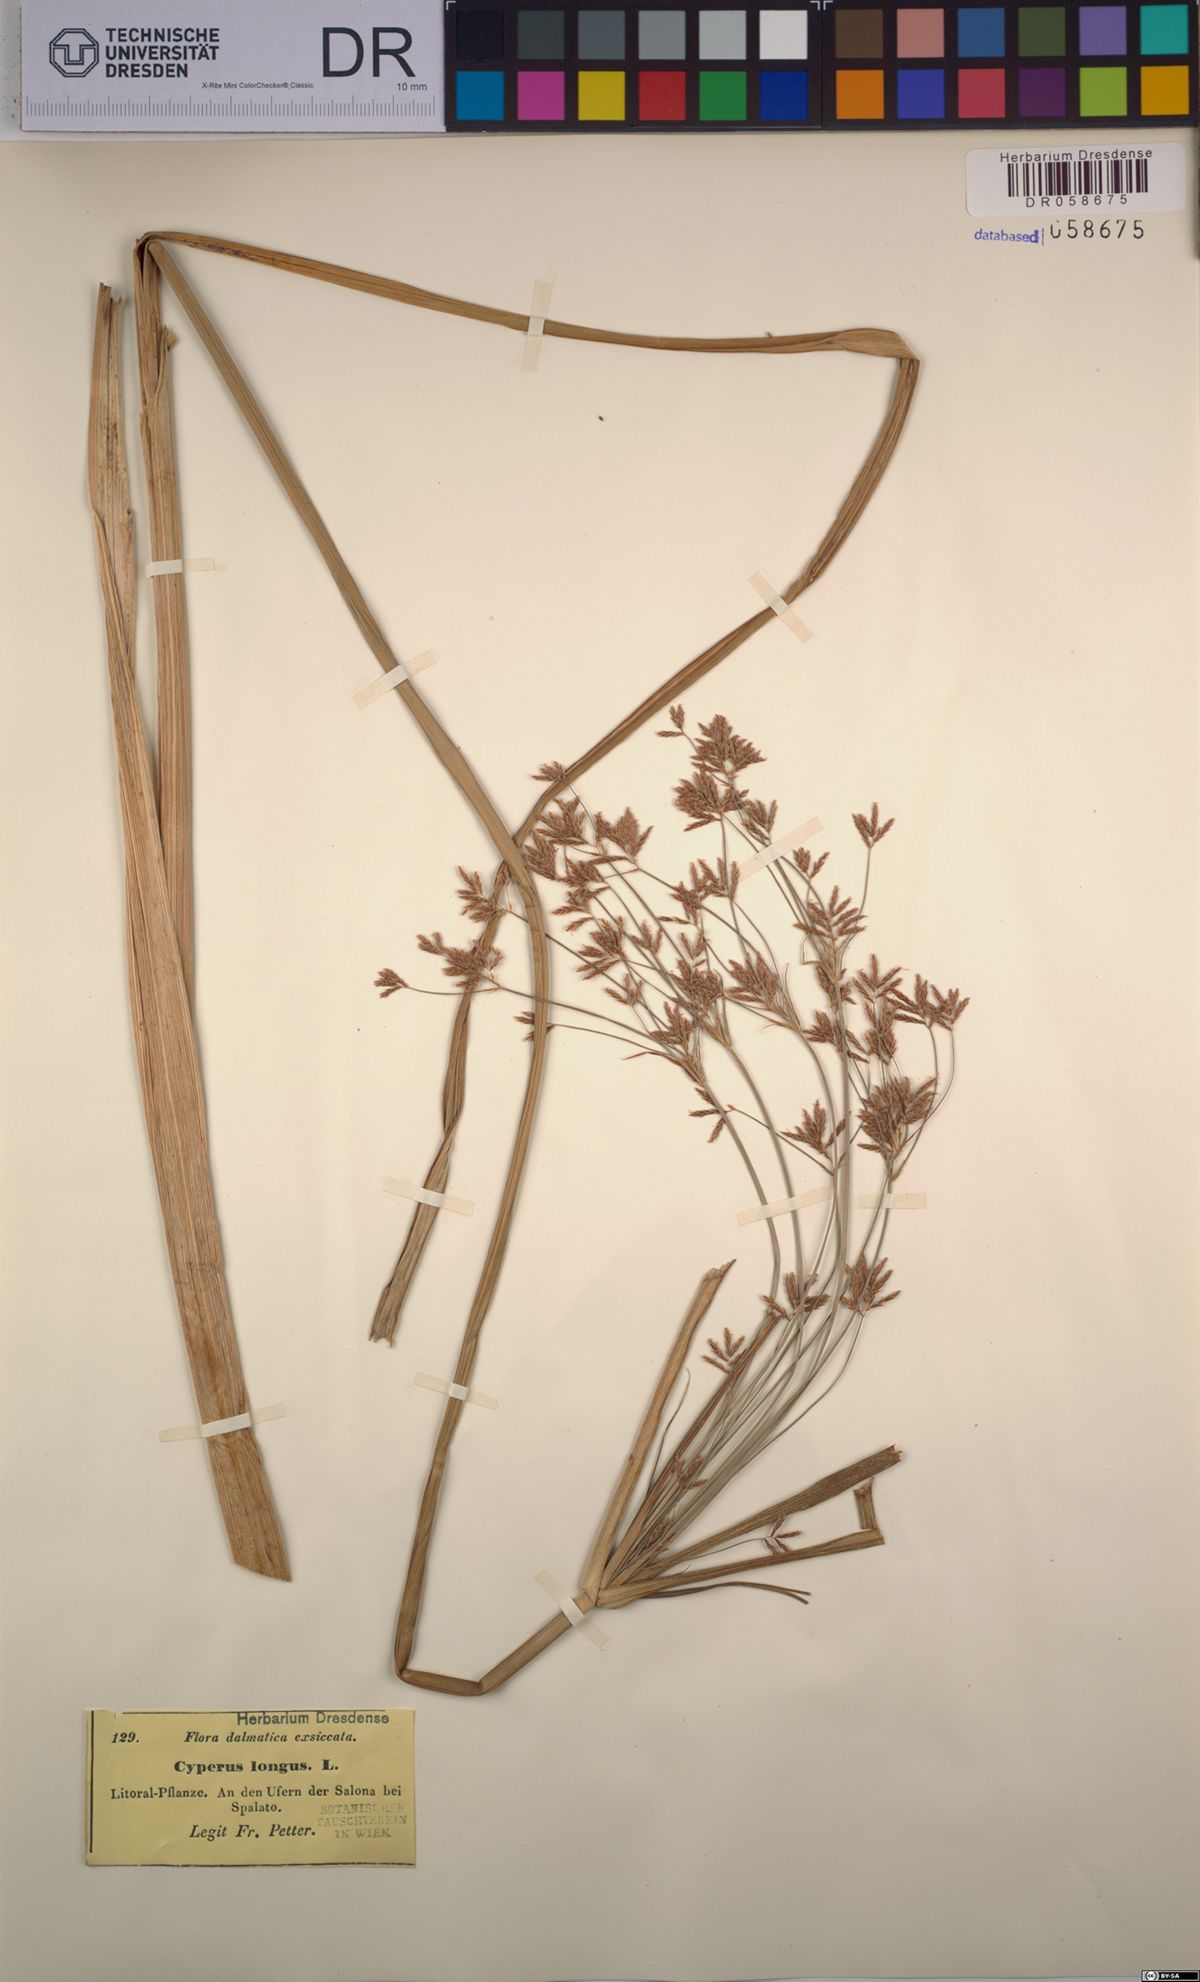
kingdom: Plantae
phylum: Tracheophyta
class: Liliopsida
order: Poales
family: Cyperaceae
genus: Cyperus
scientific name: Cyperus longus
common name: Galingale
